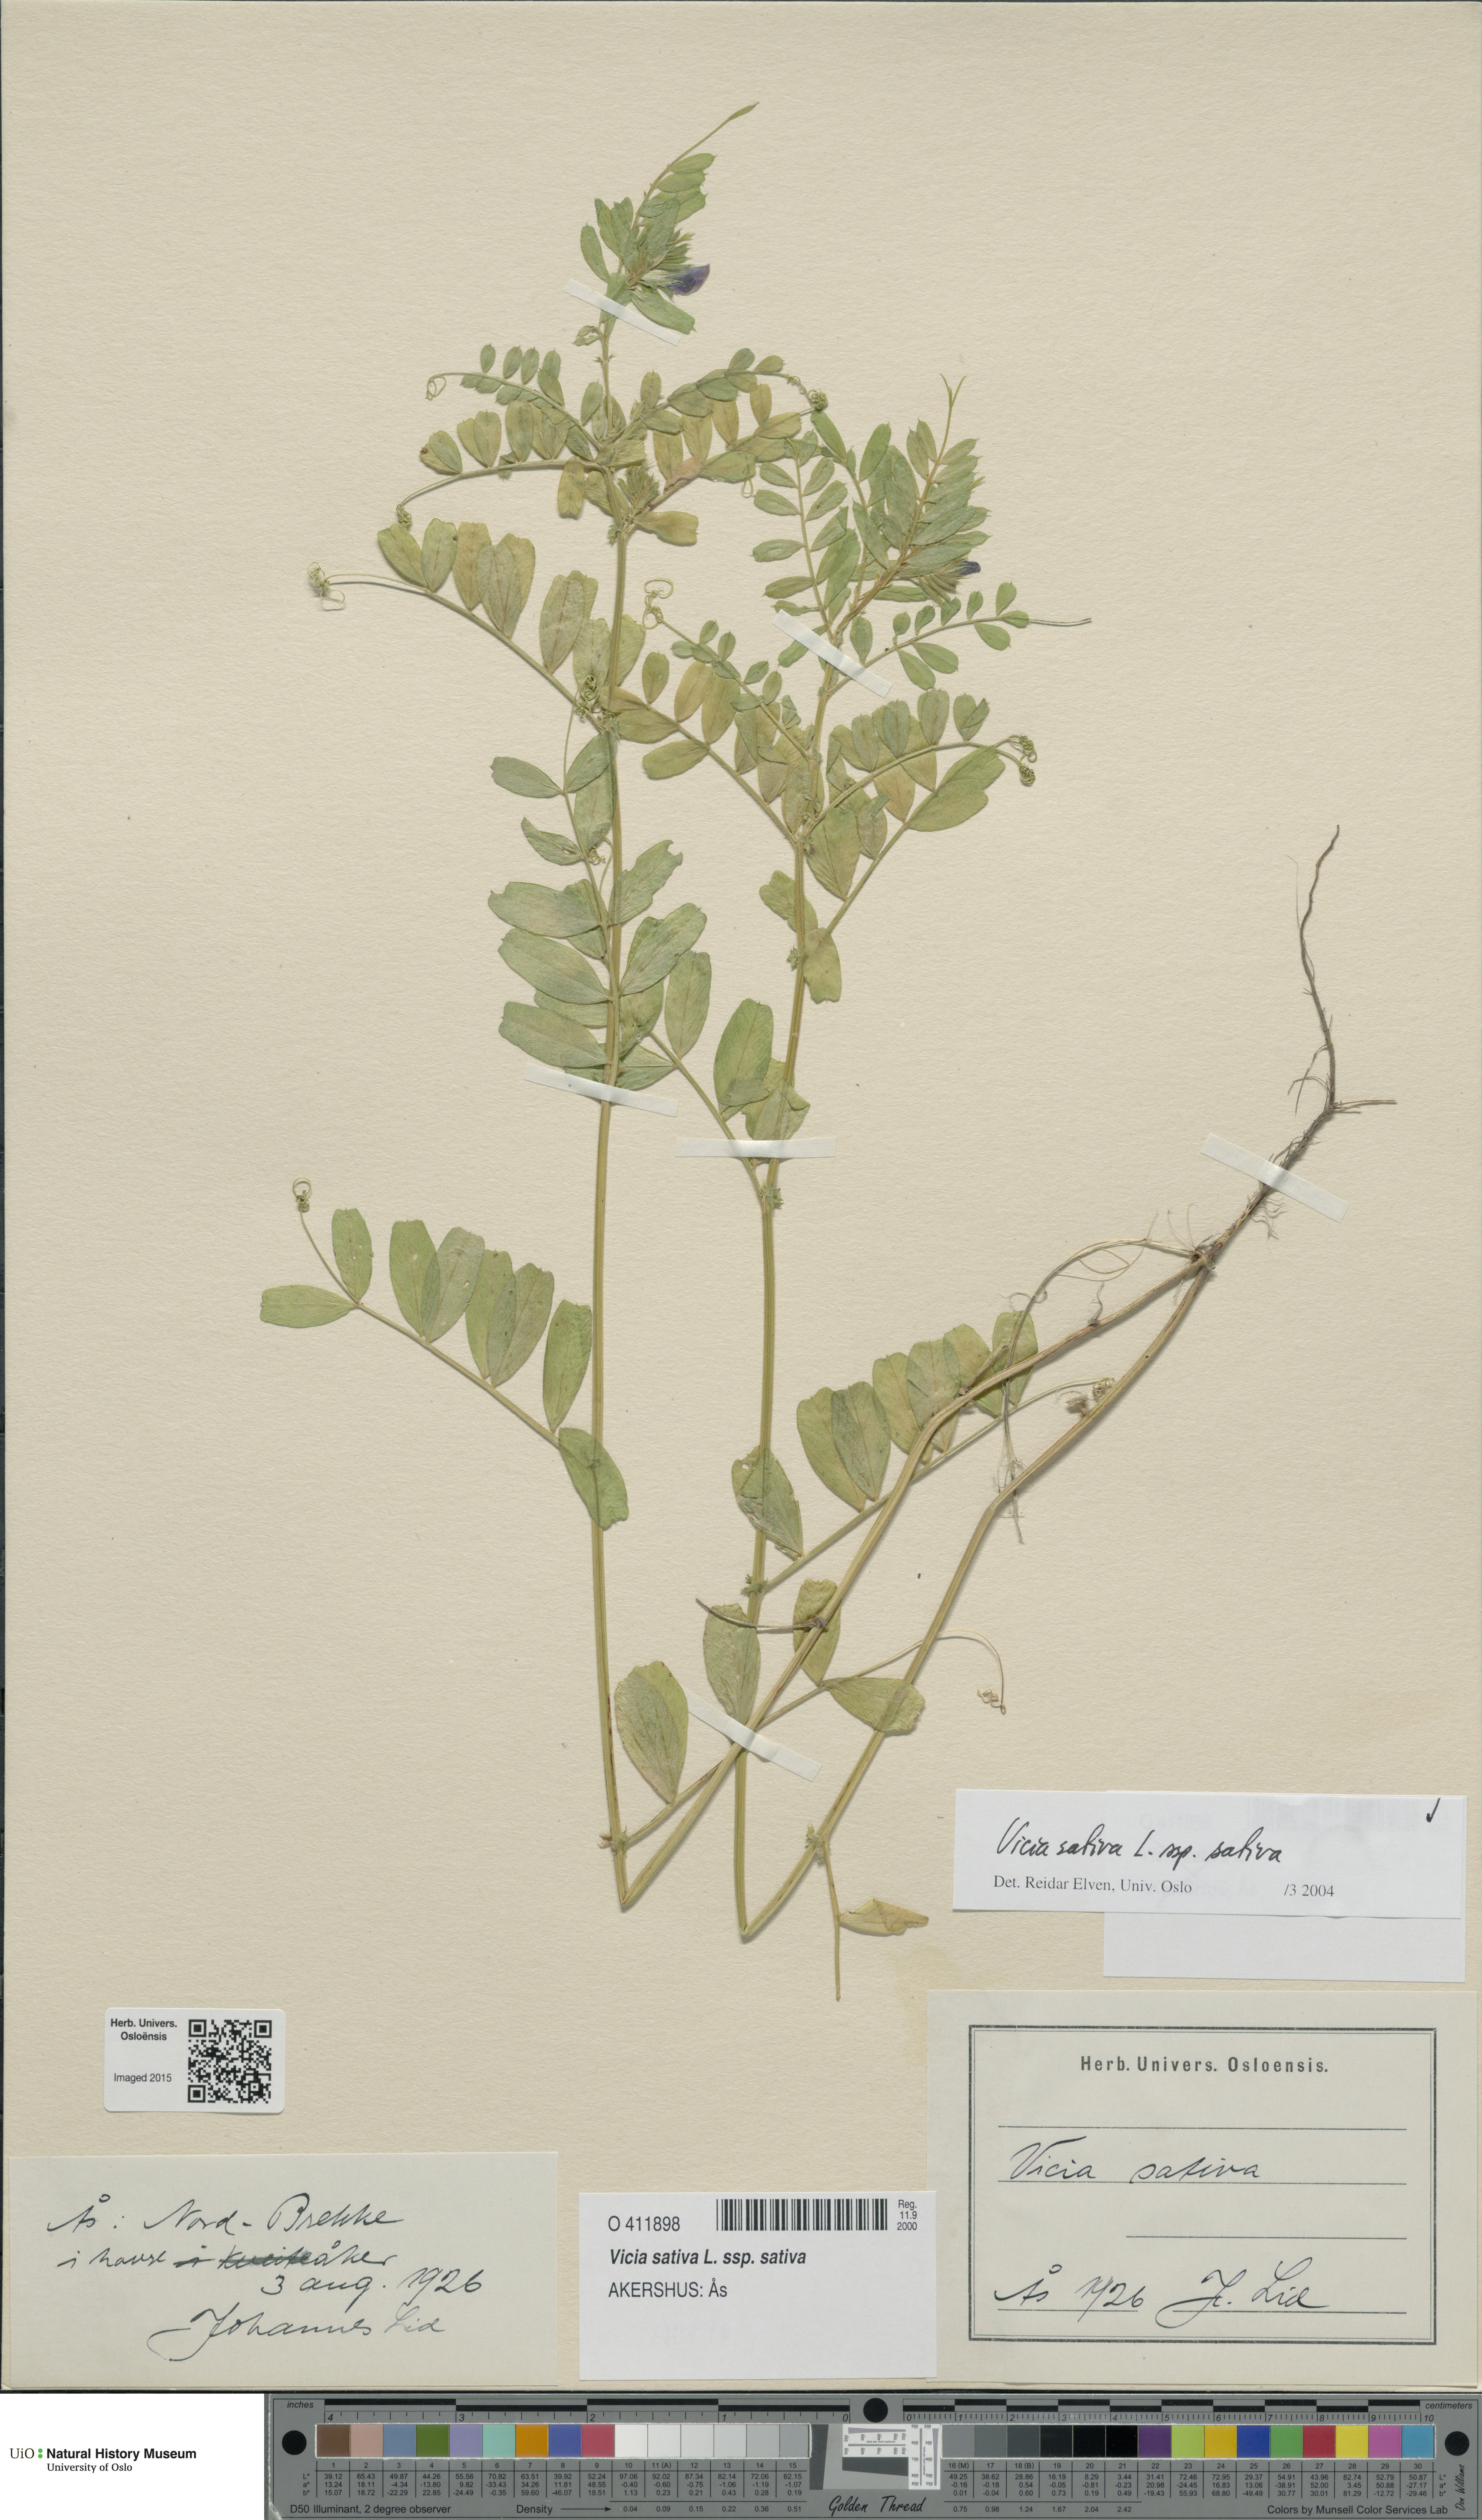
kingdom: Plantae
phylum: Tracheophyta
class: Magnoliopsida
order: Fabales
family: Fabaceae
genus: Vicia
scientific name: Vicia sativa
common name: Garden vetch
